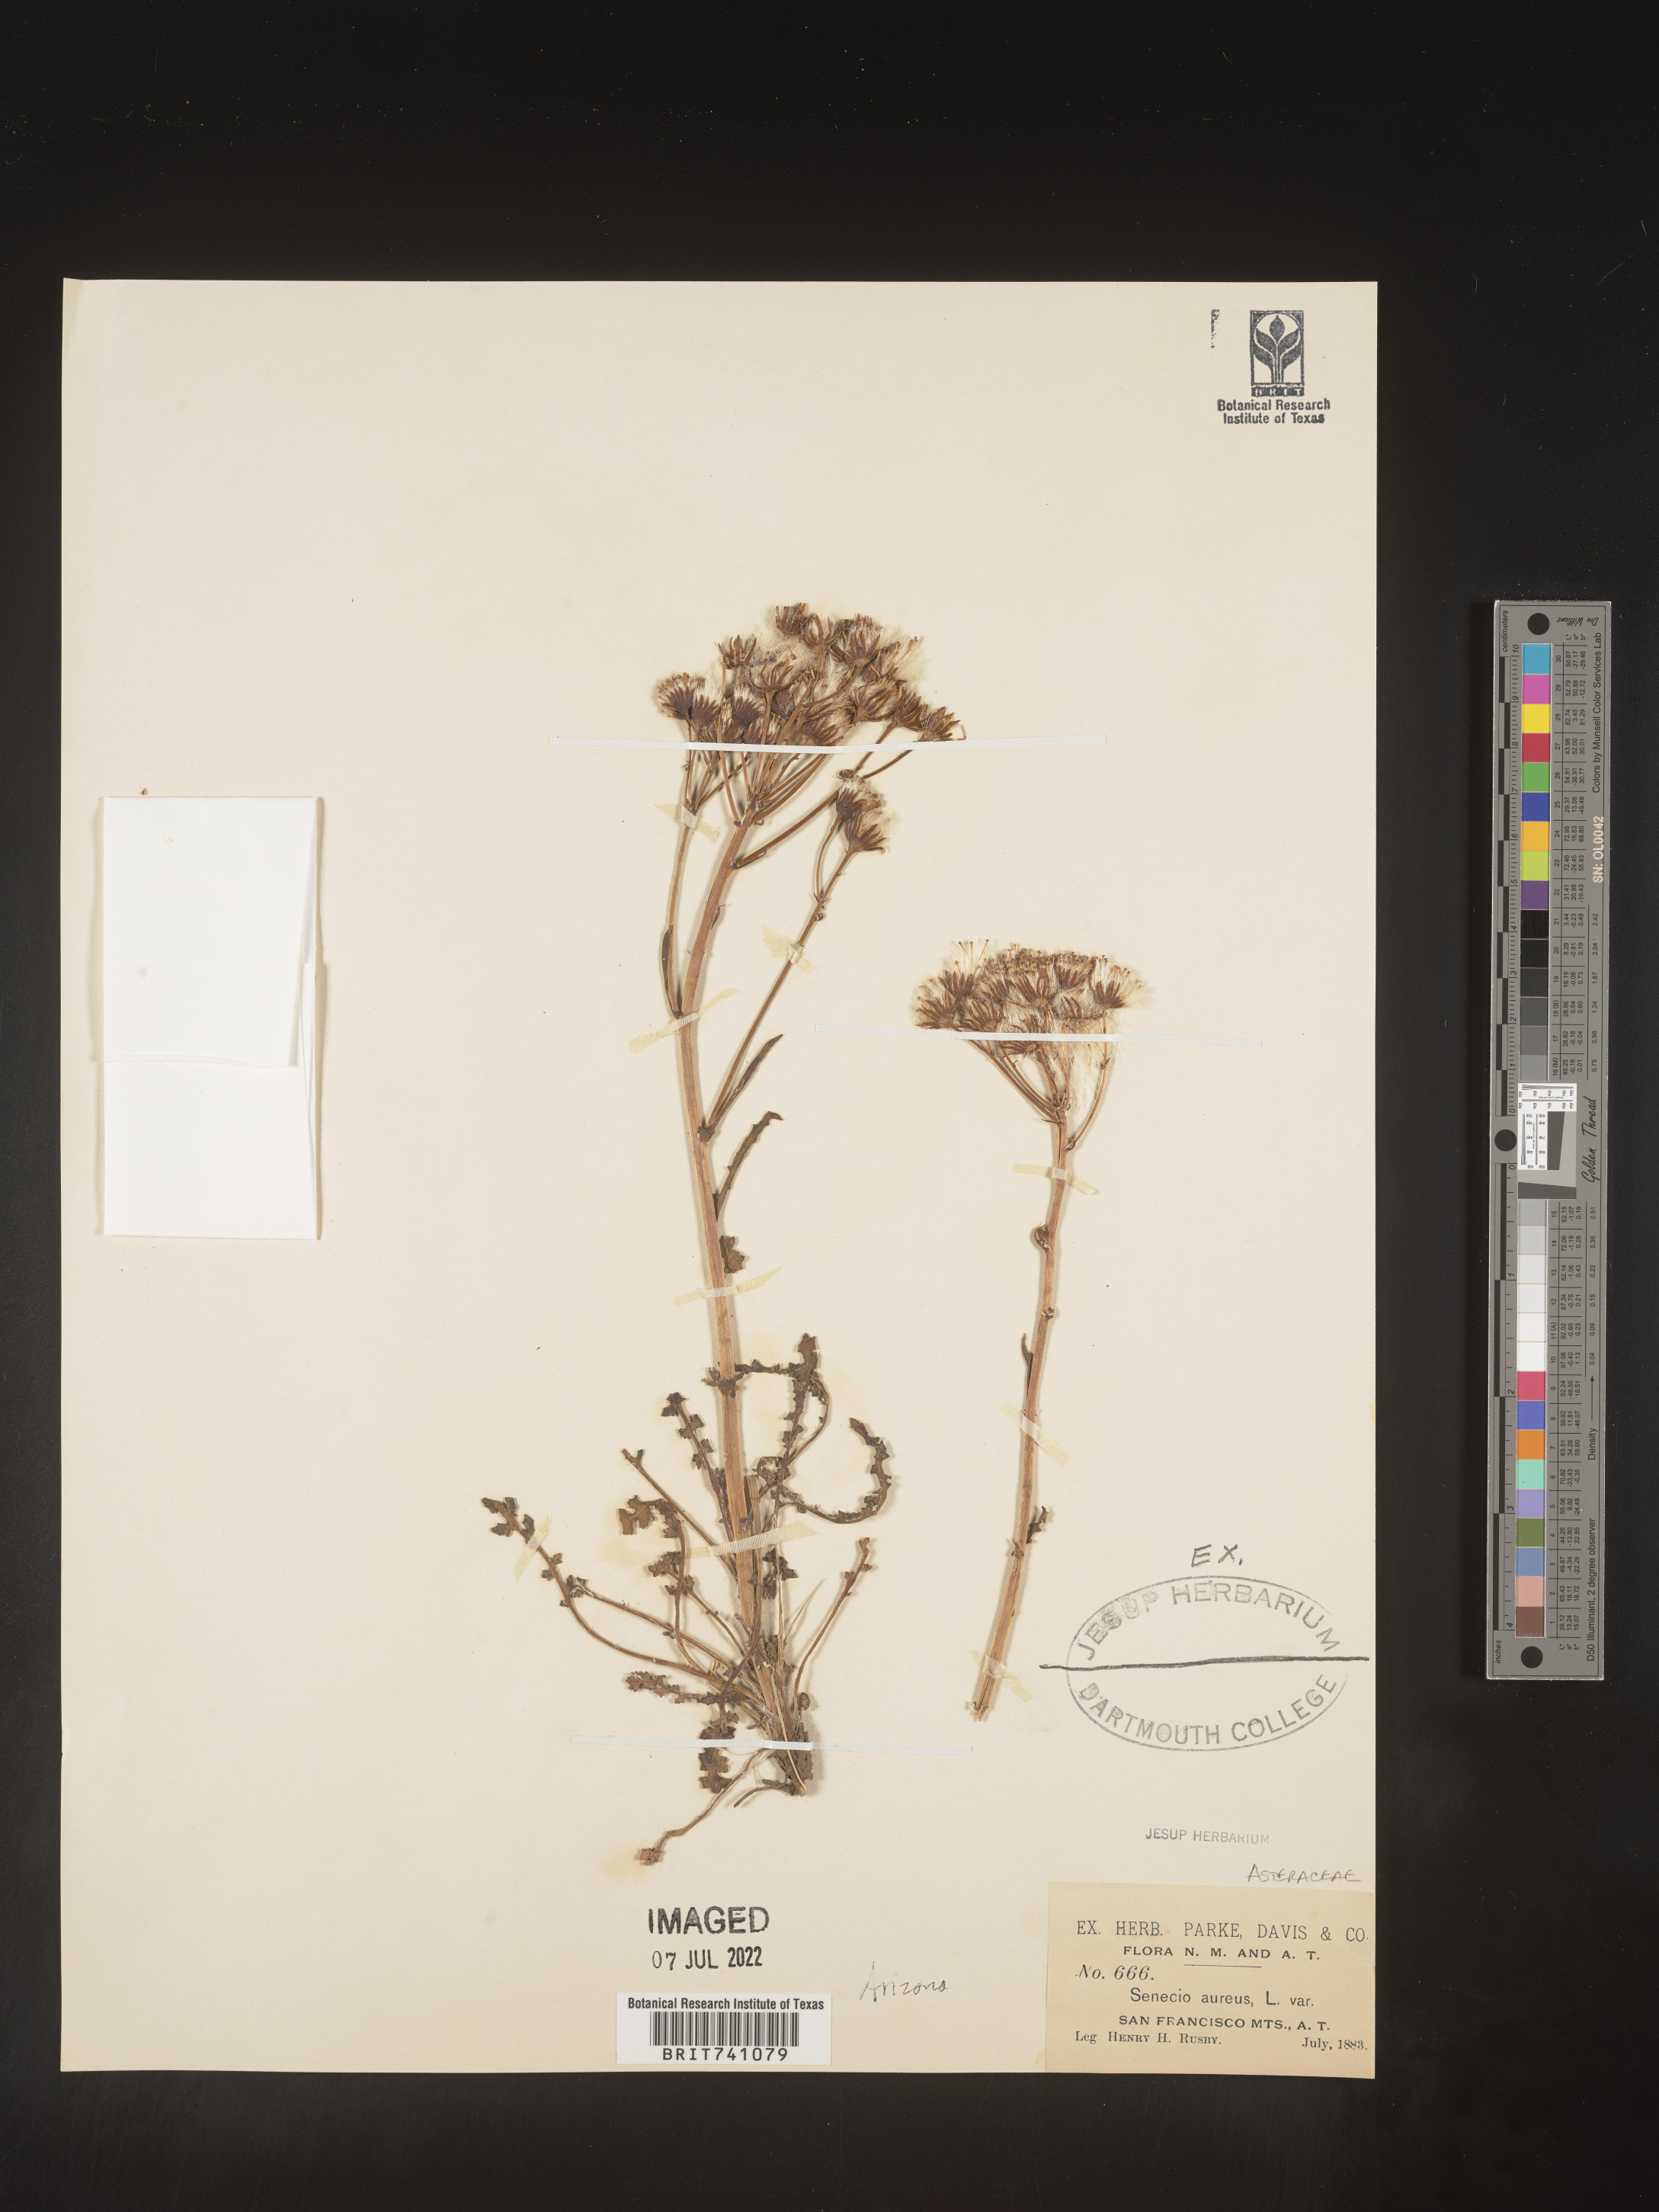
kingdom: Plantae
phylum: Tracheophyta
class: Magnoliopsida
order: Asterales
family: Asteraceae
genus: Senecio
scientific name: Senecio
